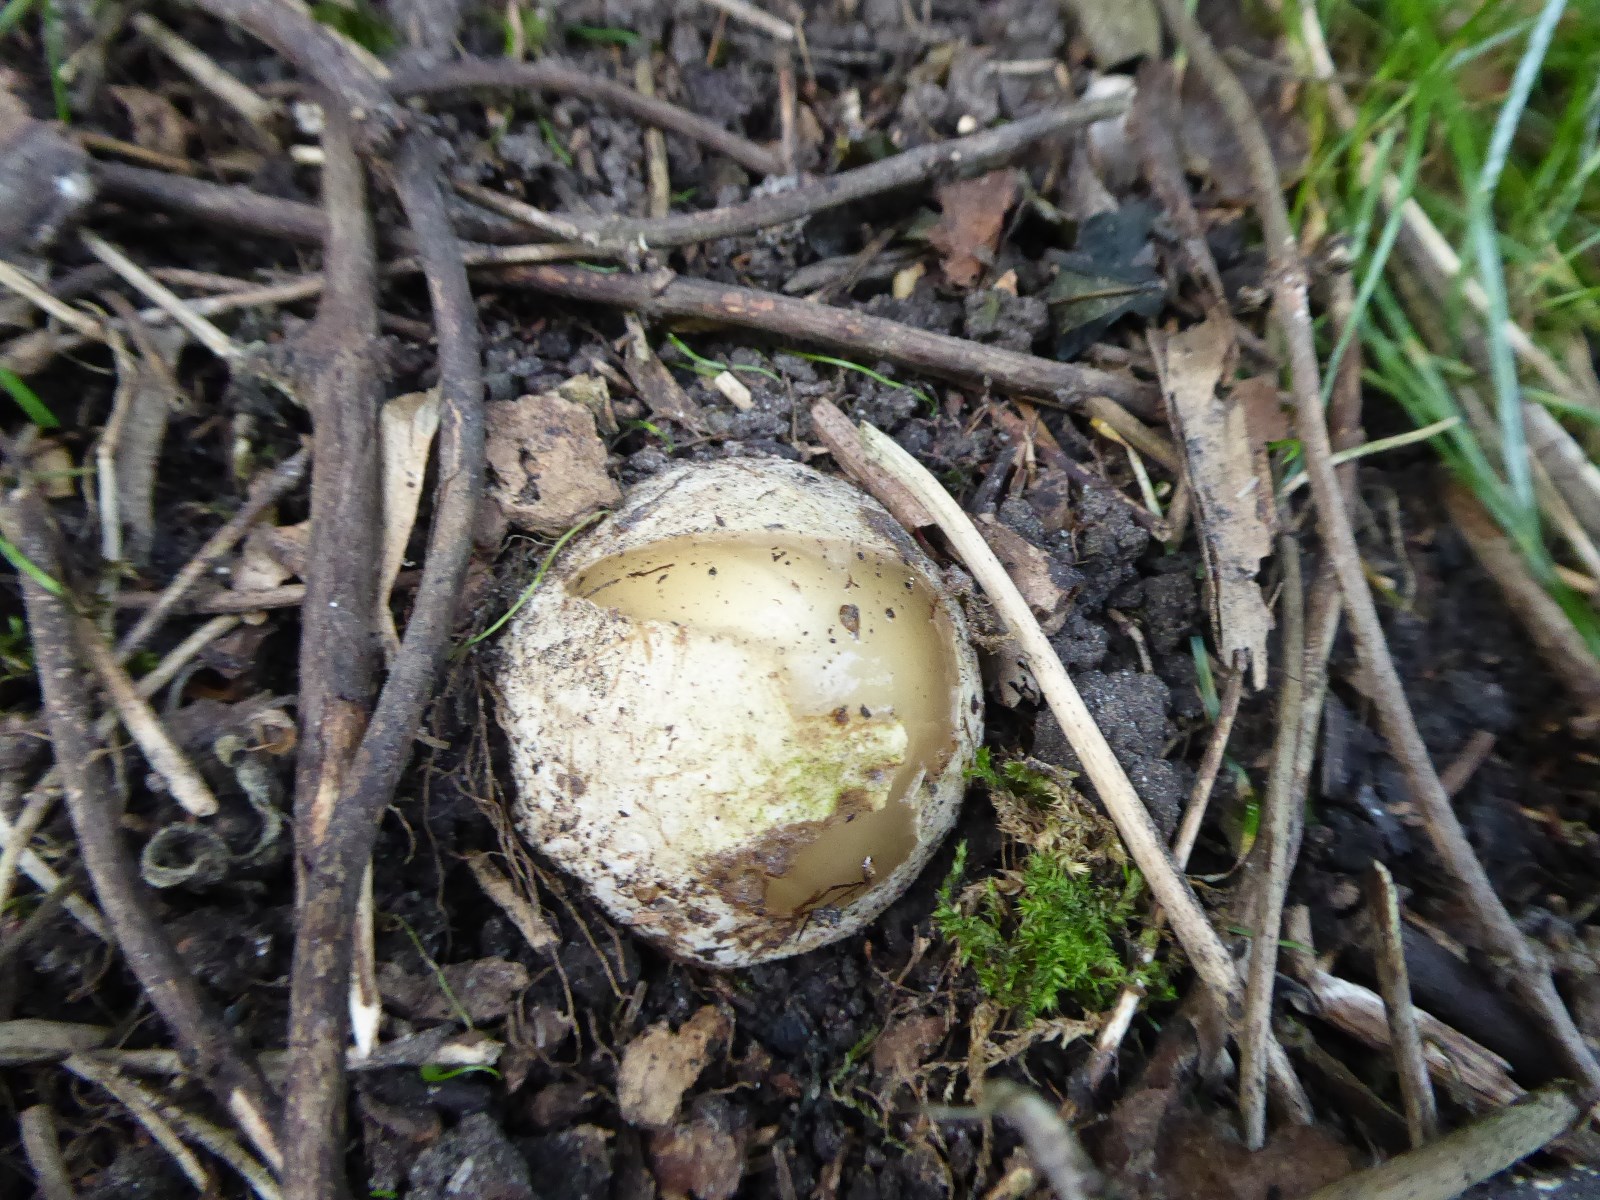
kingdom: Fungi
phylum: Basidiomycota
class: Agaricomycetes
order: Phallales
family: Phallaceae
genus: Phallus
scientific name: Phallus impudicus
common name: almindelig stinksvamp
